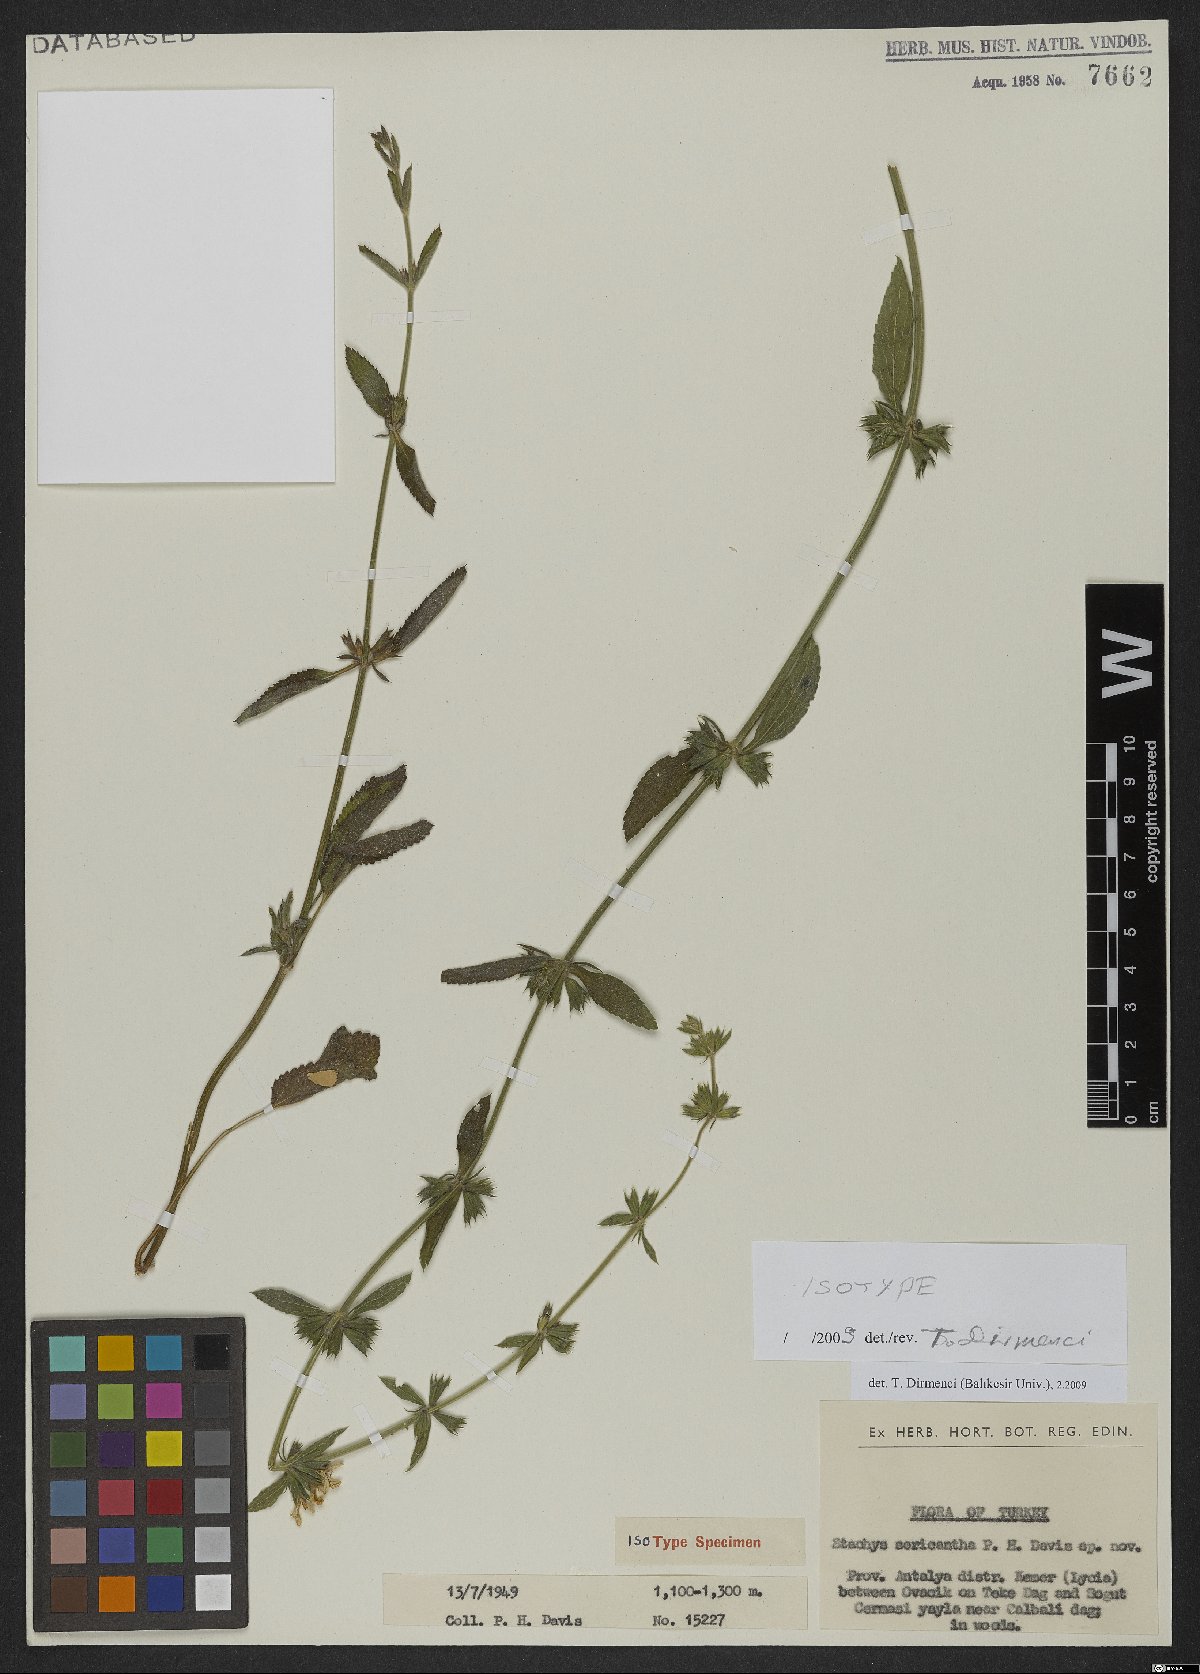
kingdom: Plantae
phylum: Tracheophyta
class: Magnoliopsida
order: Lamiales
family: Lamiaceae
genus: Stachys
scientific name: Stachys sericantha
